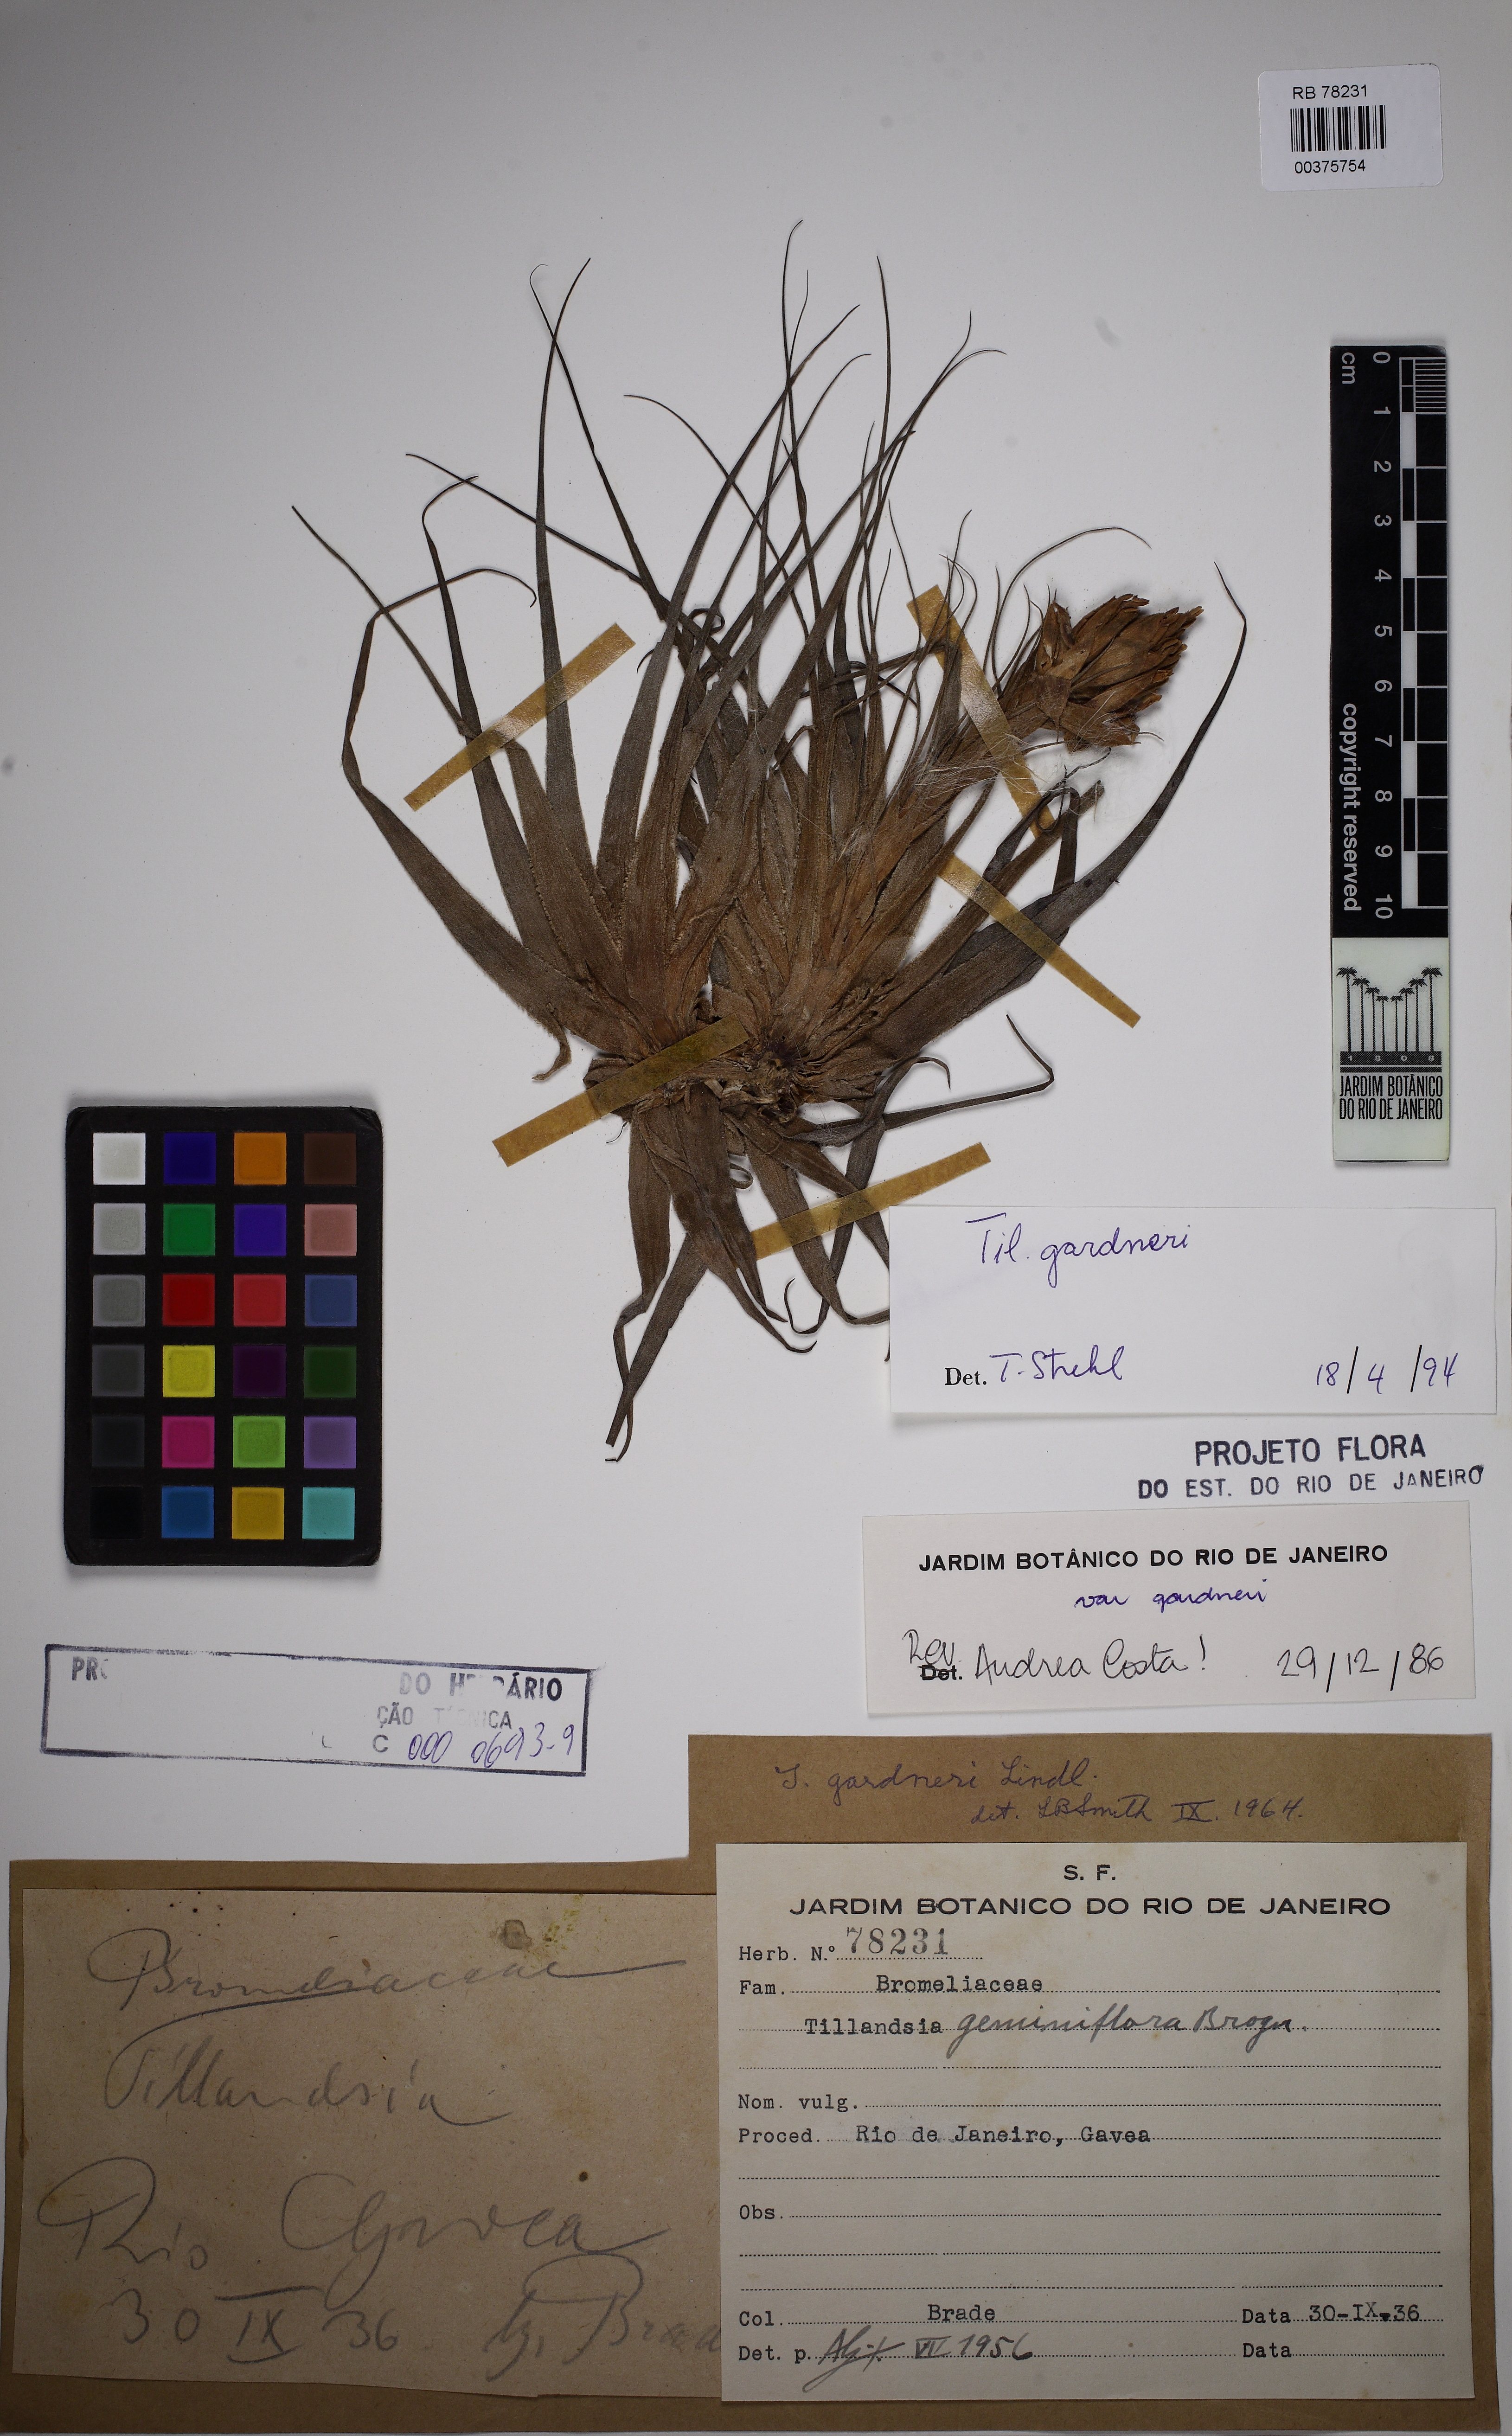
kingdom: Plantae
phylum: Tracheophyta
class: Liliopsida
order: Poales
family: Bromeliaceae
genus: Tillandsia
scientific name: Tillandsia gardneri
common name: Airplant
